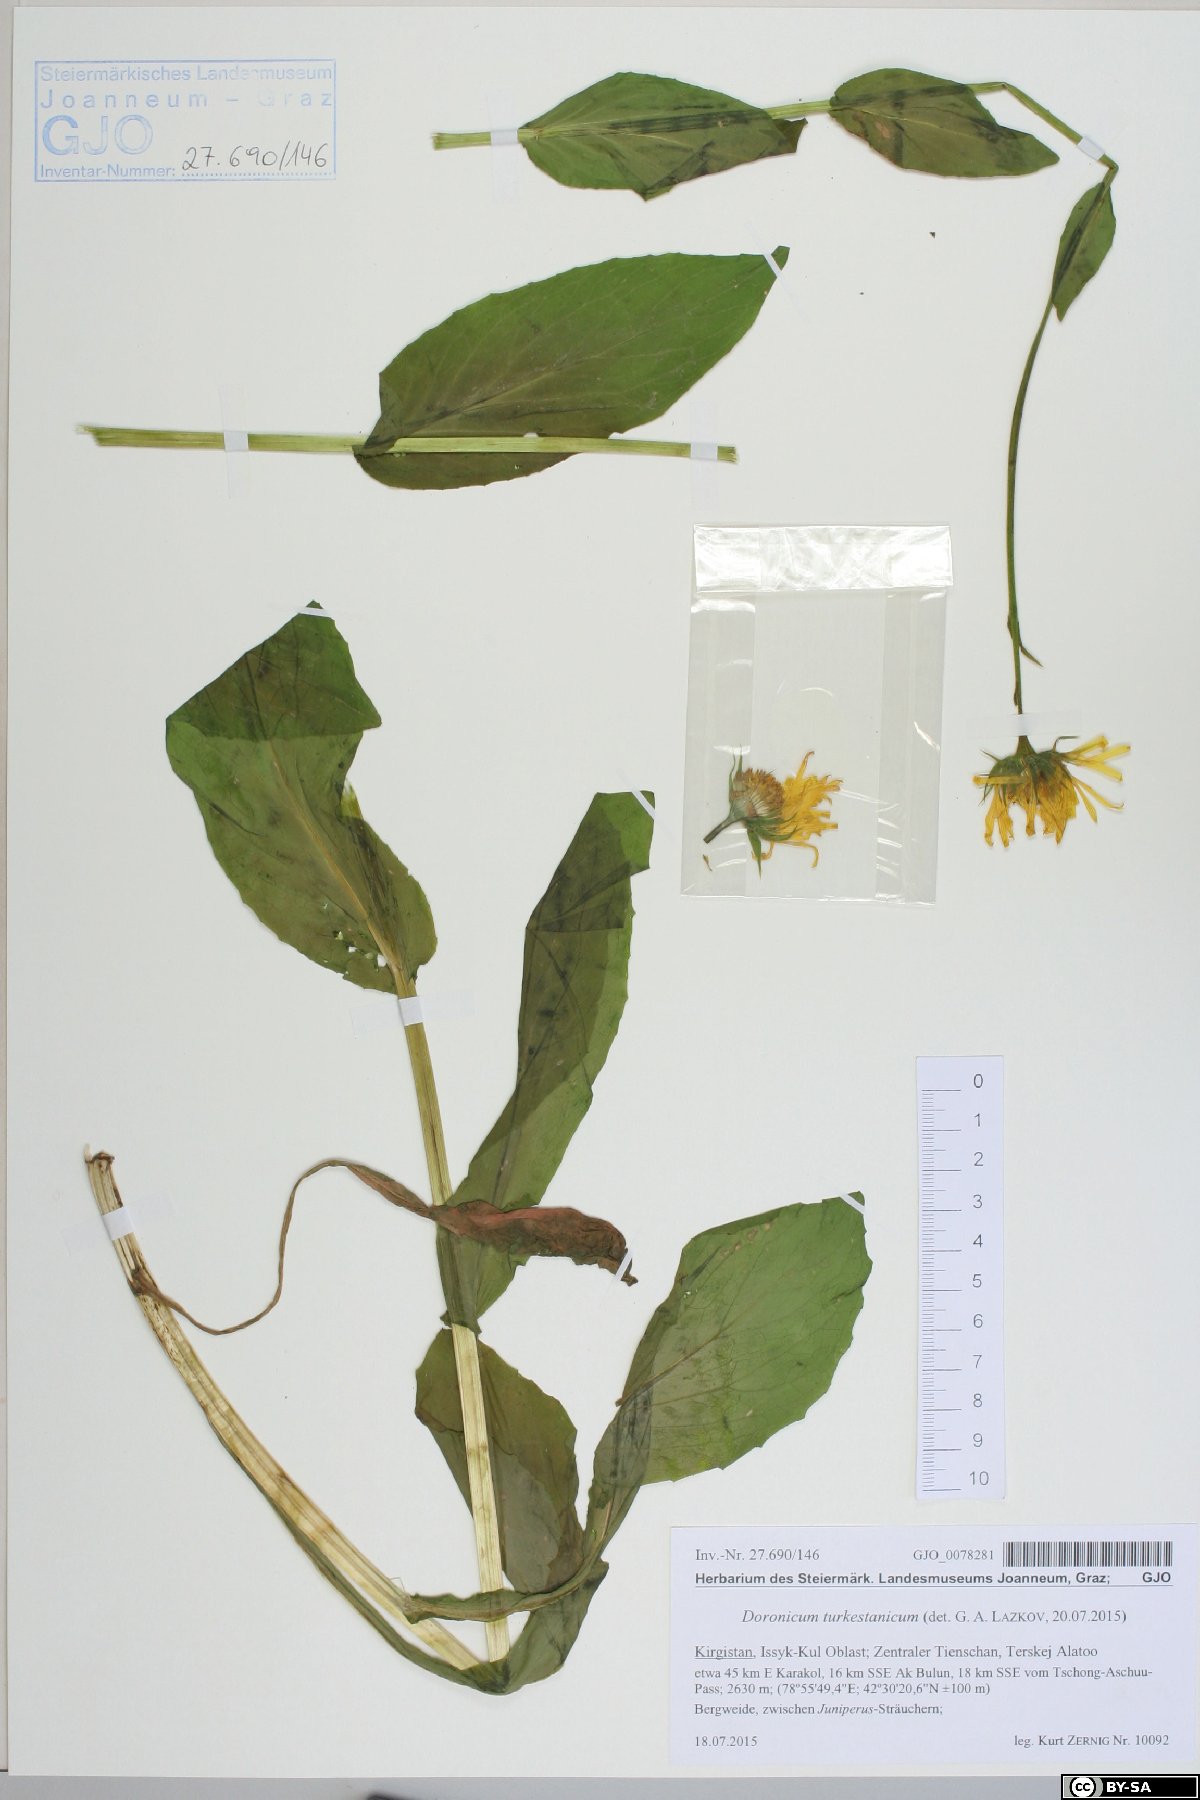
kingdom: Plantae
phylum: Tracheophyta
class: Magnoliopsida
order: Asterales
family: Asteraceae
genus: Doronicum
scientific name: Doronicum turkestanicum
